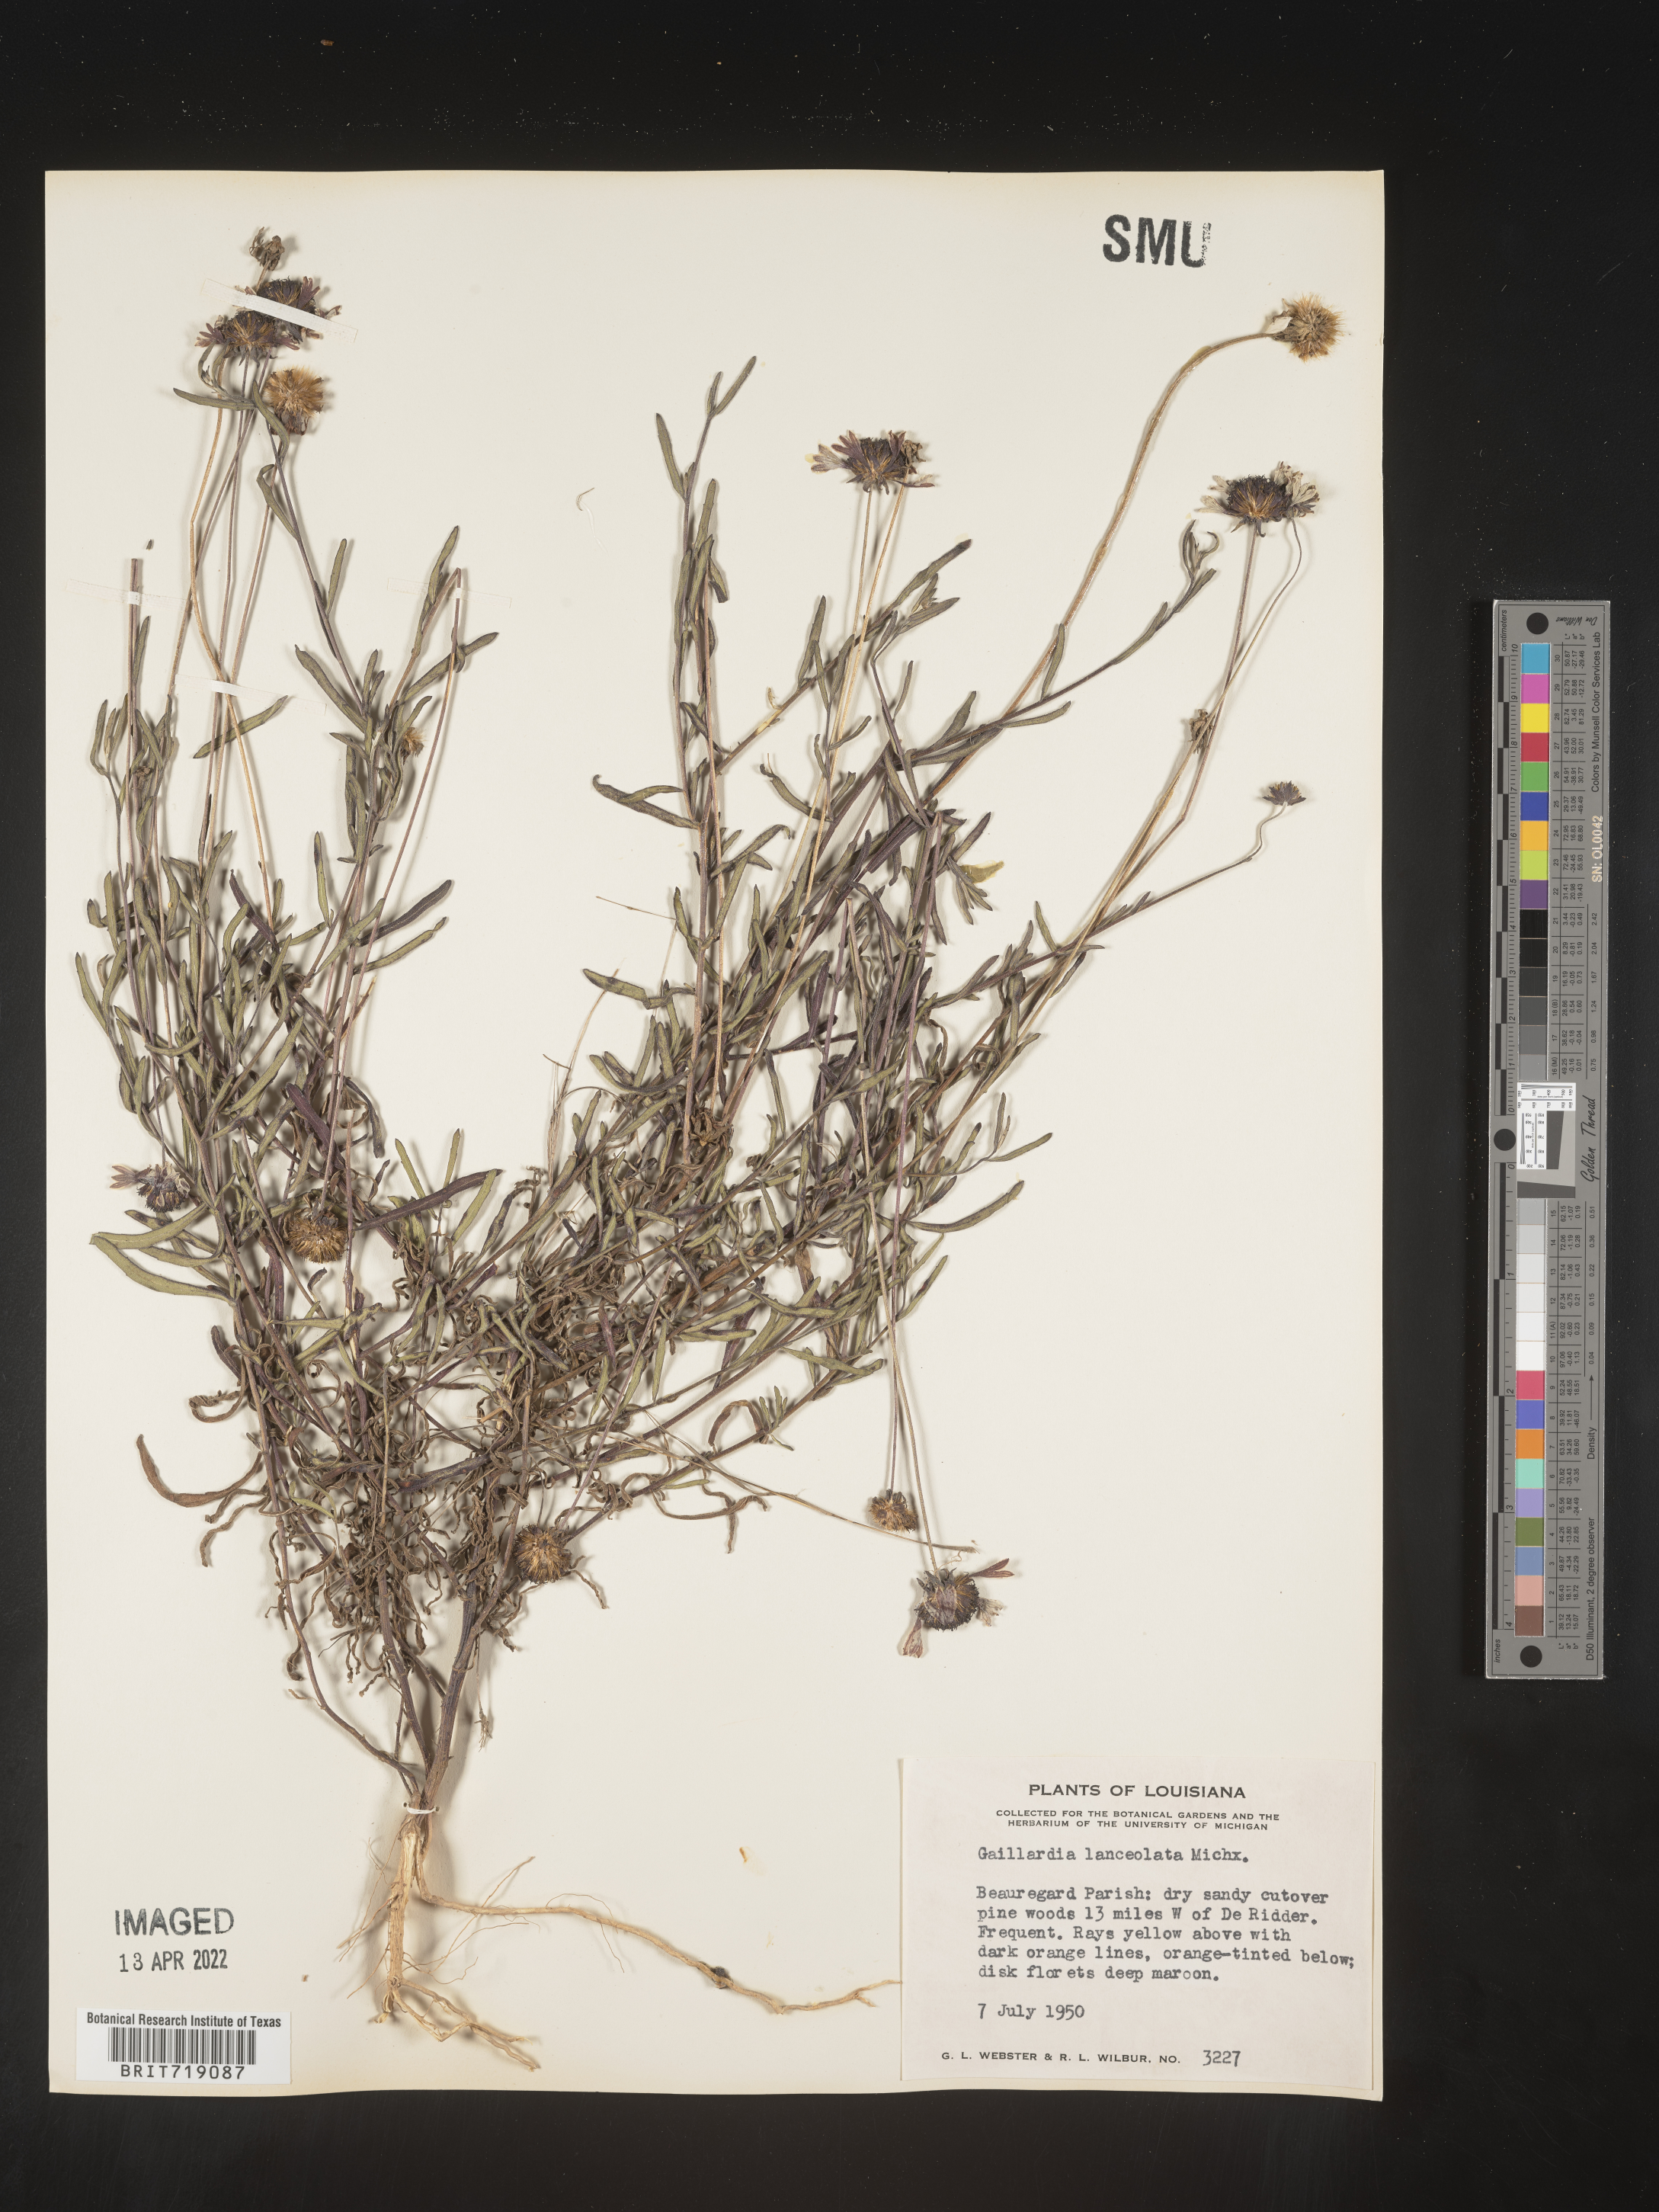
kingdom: Plantae
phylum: Tracheophyta
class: Magnoliopsida
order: Asterales
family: Asteraceae
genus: Gaillardia
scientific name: Gaillardia aestivalis
